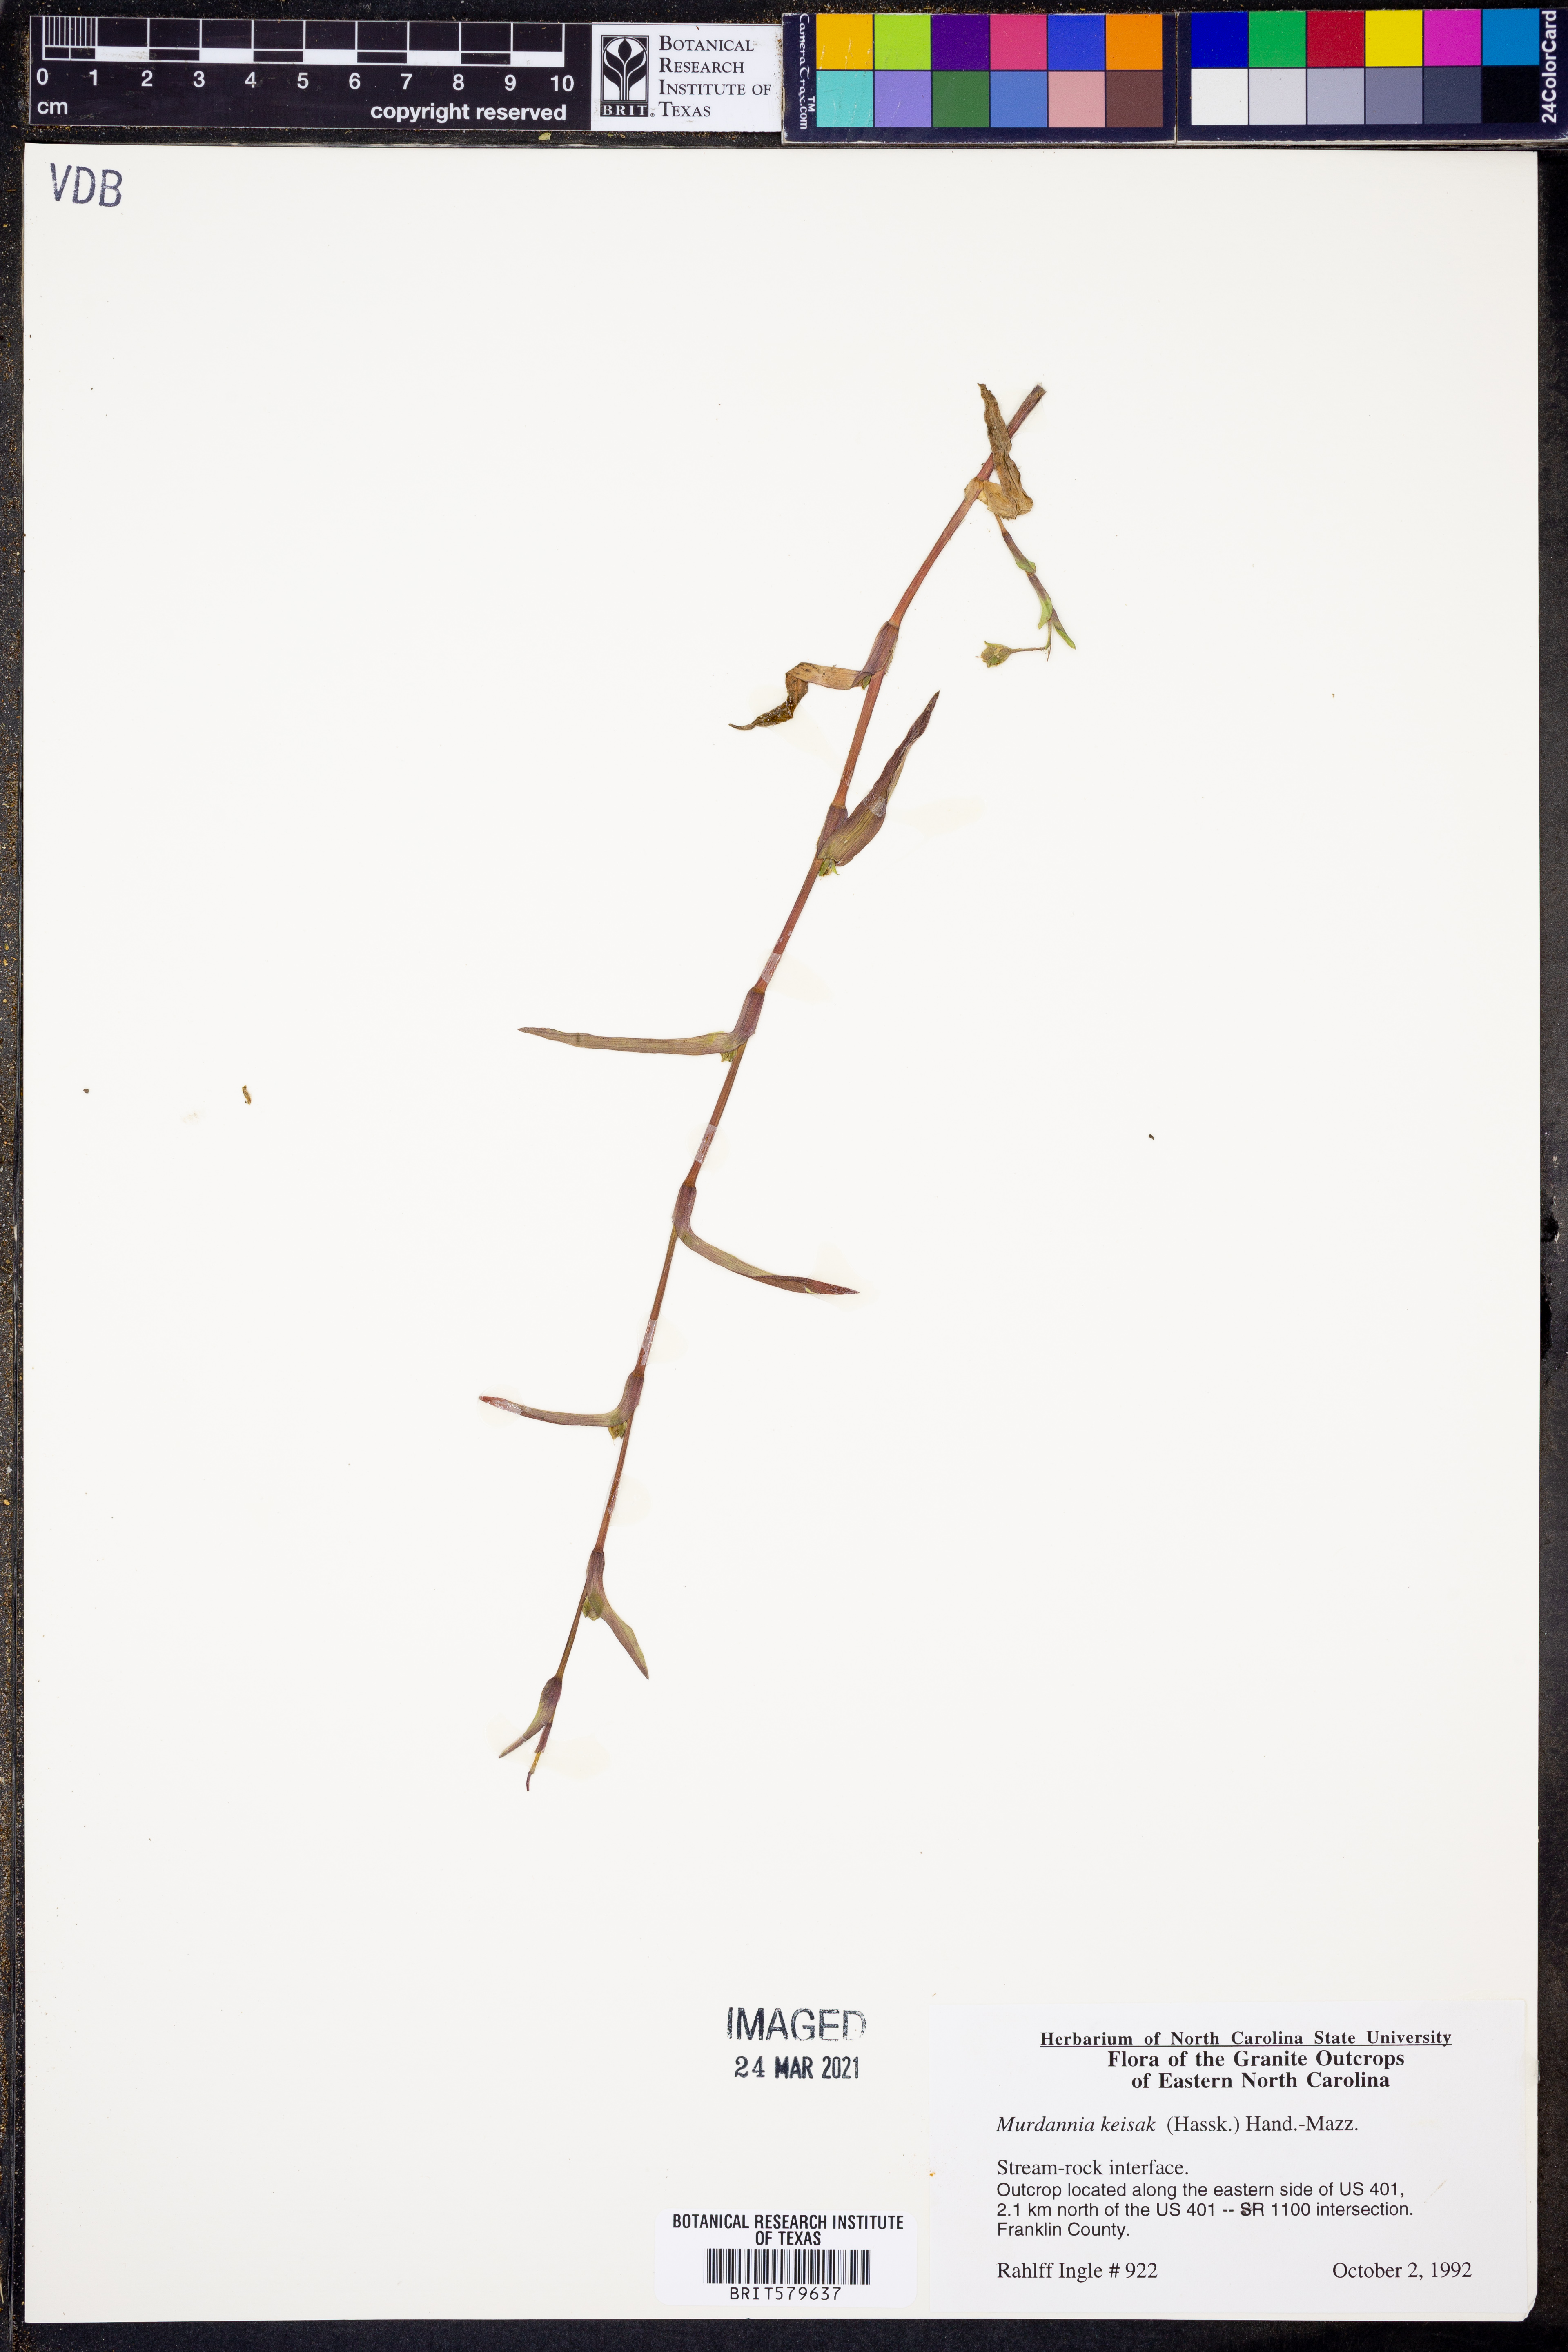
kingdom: Plantae
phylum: Tracheophyta
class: Liliopsida
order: Commelinales
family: Commelinaceae
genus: Murdannia
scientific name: Murdannia keisak
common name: Wartremoving herb
